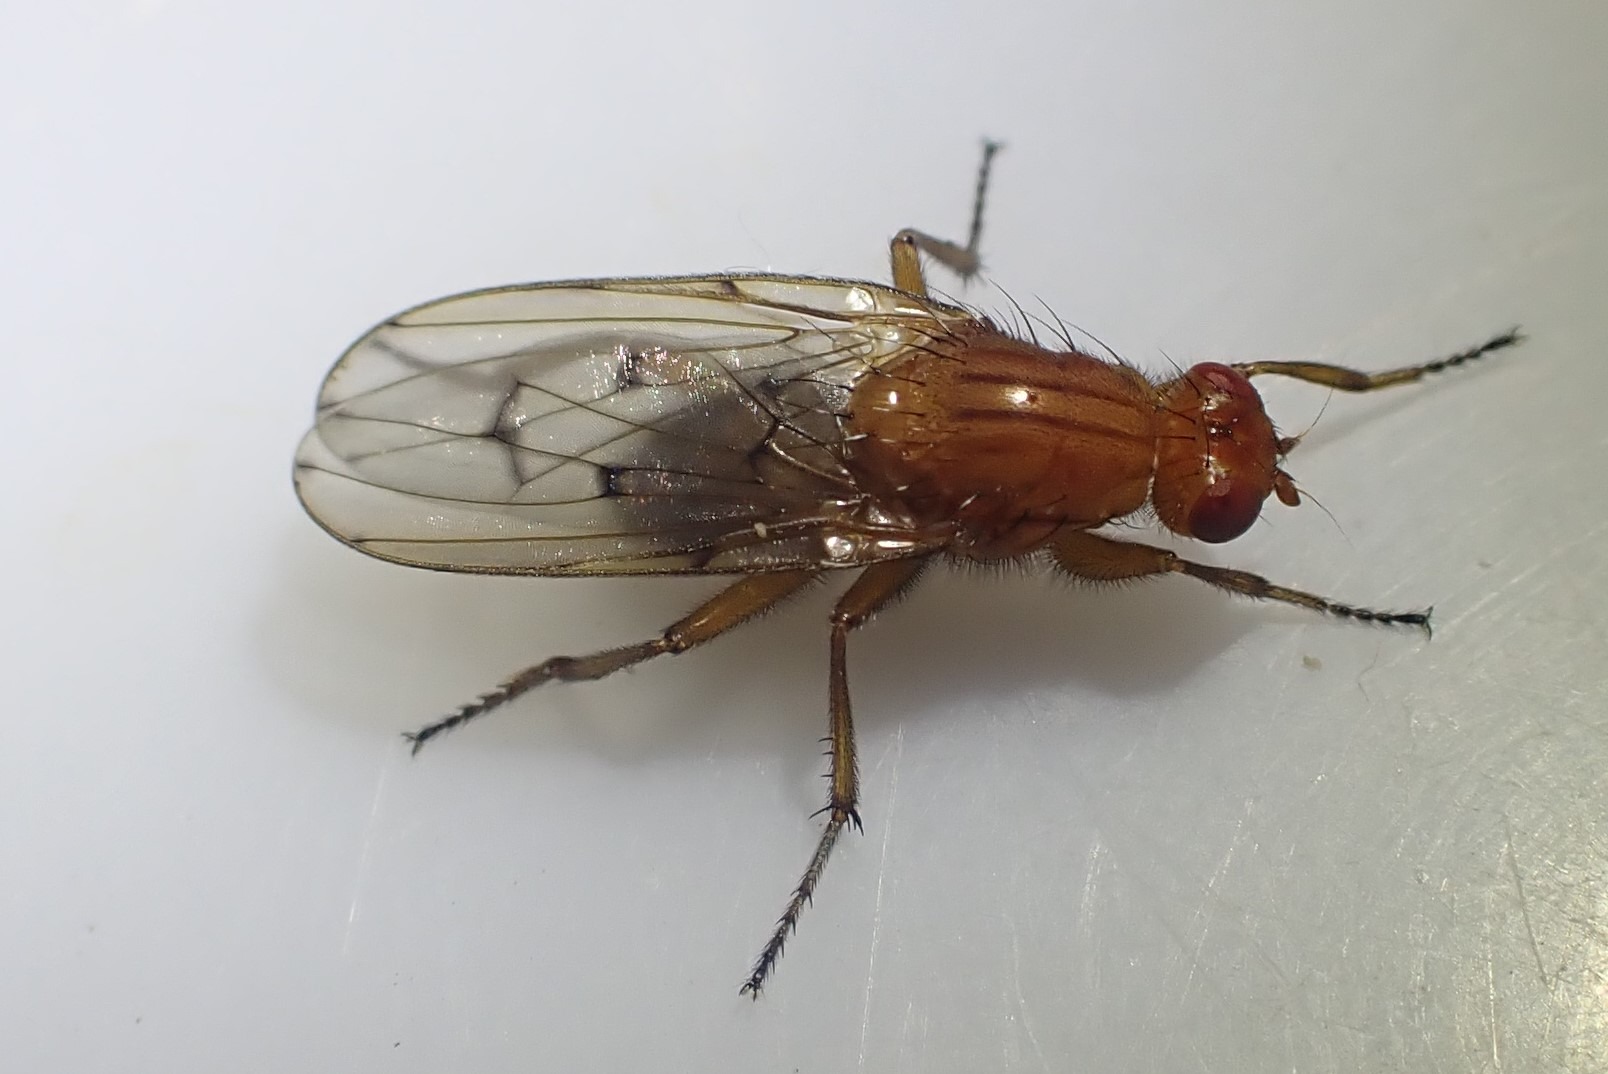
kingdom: Animalia
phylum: Arthropoda
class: Insecta
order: Diptera
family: Dryomyzidae
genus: Dryomyza
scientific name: Dryomyza anilis
